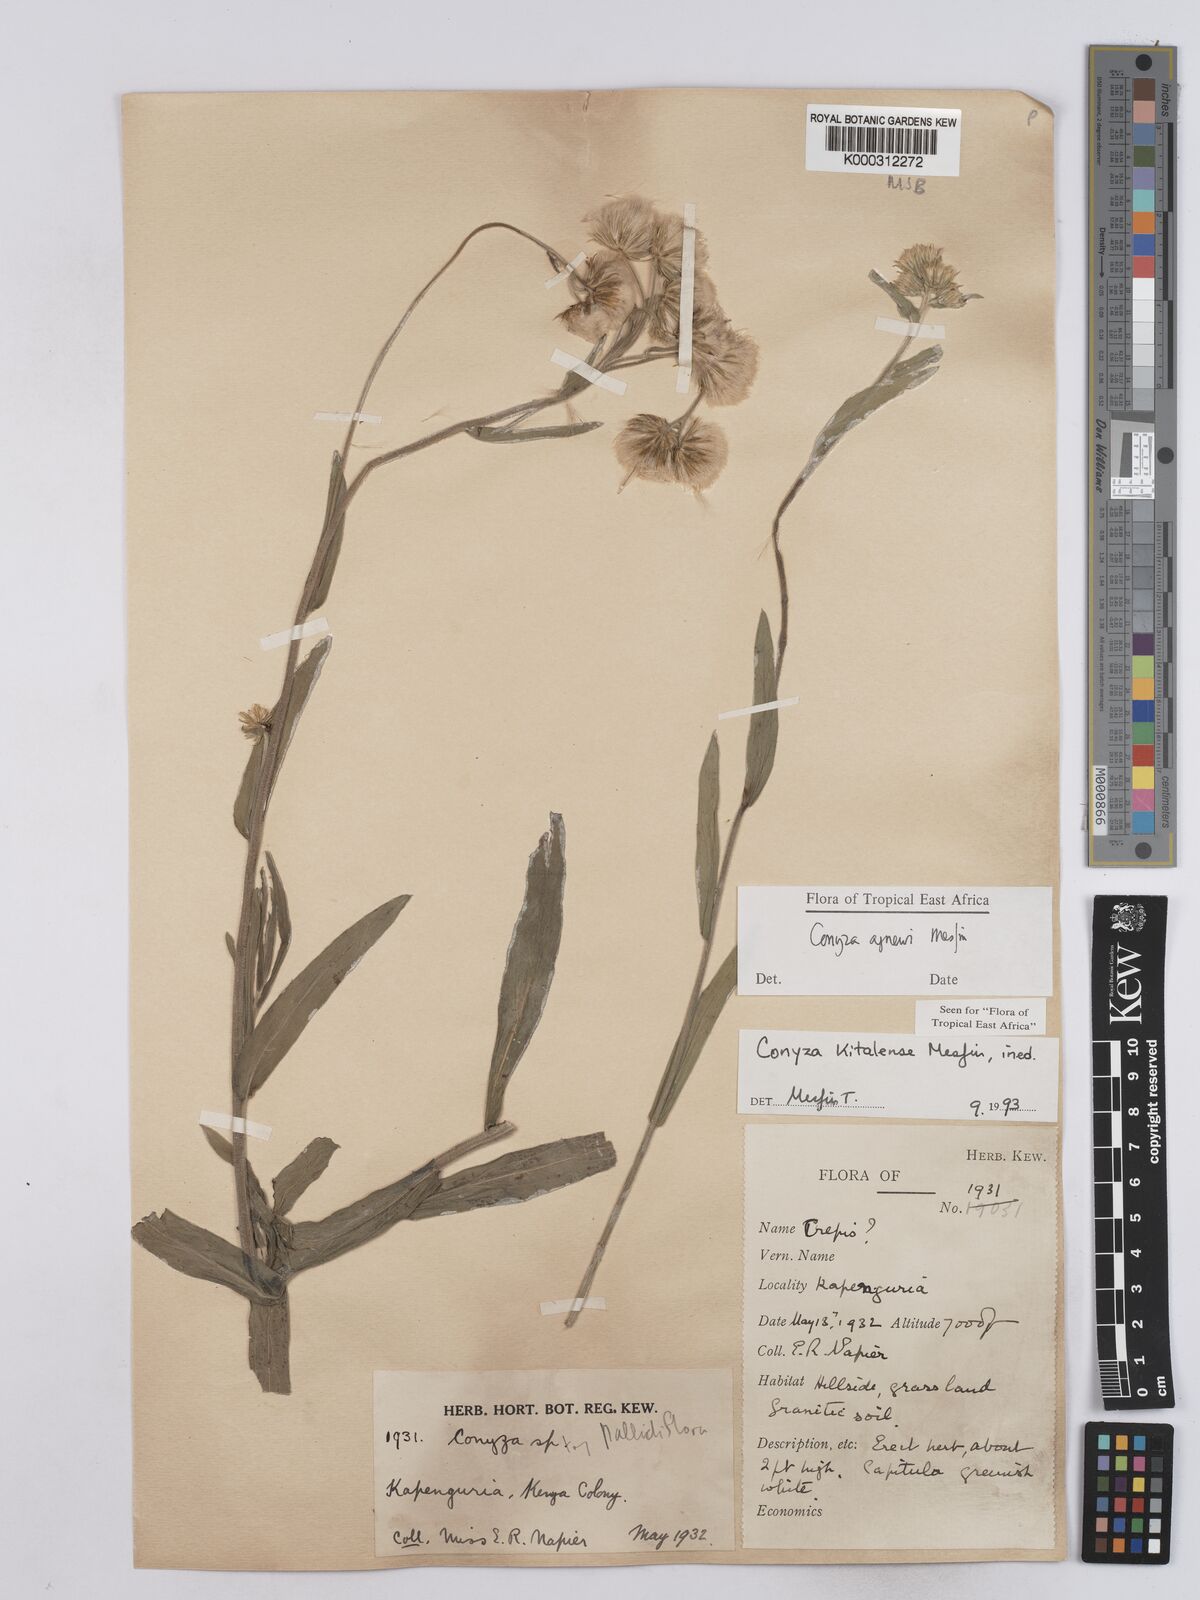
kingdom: Plantae
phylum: Tracheophyta
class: Magnoliopsida
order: Asterales
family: Asteraceae
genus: Conyza
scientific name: Conyza agnewii
